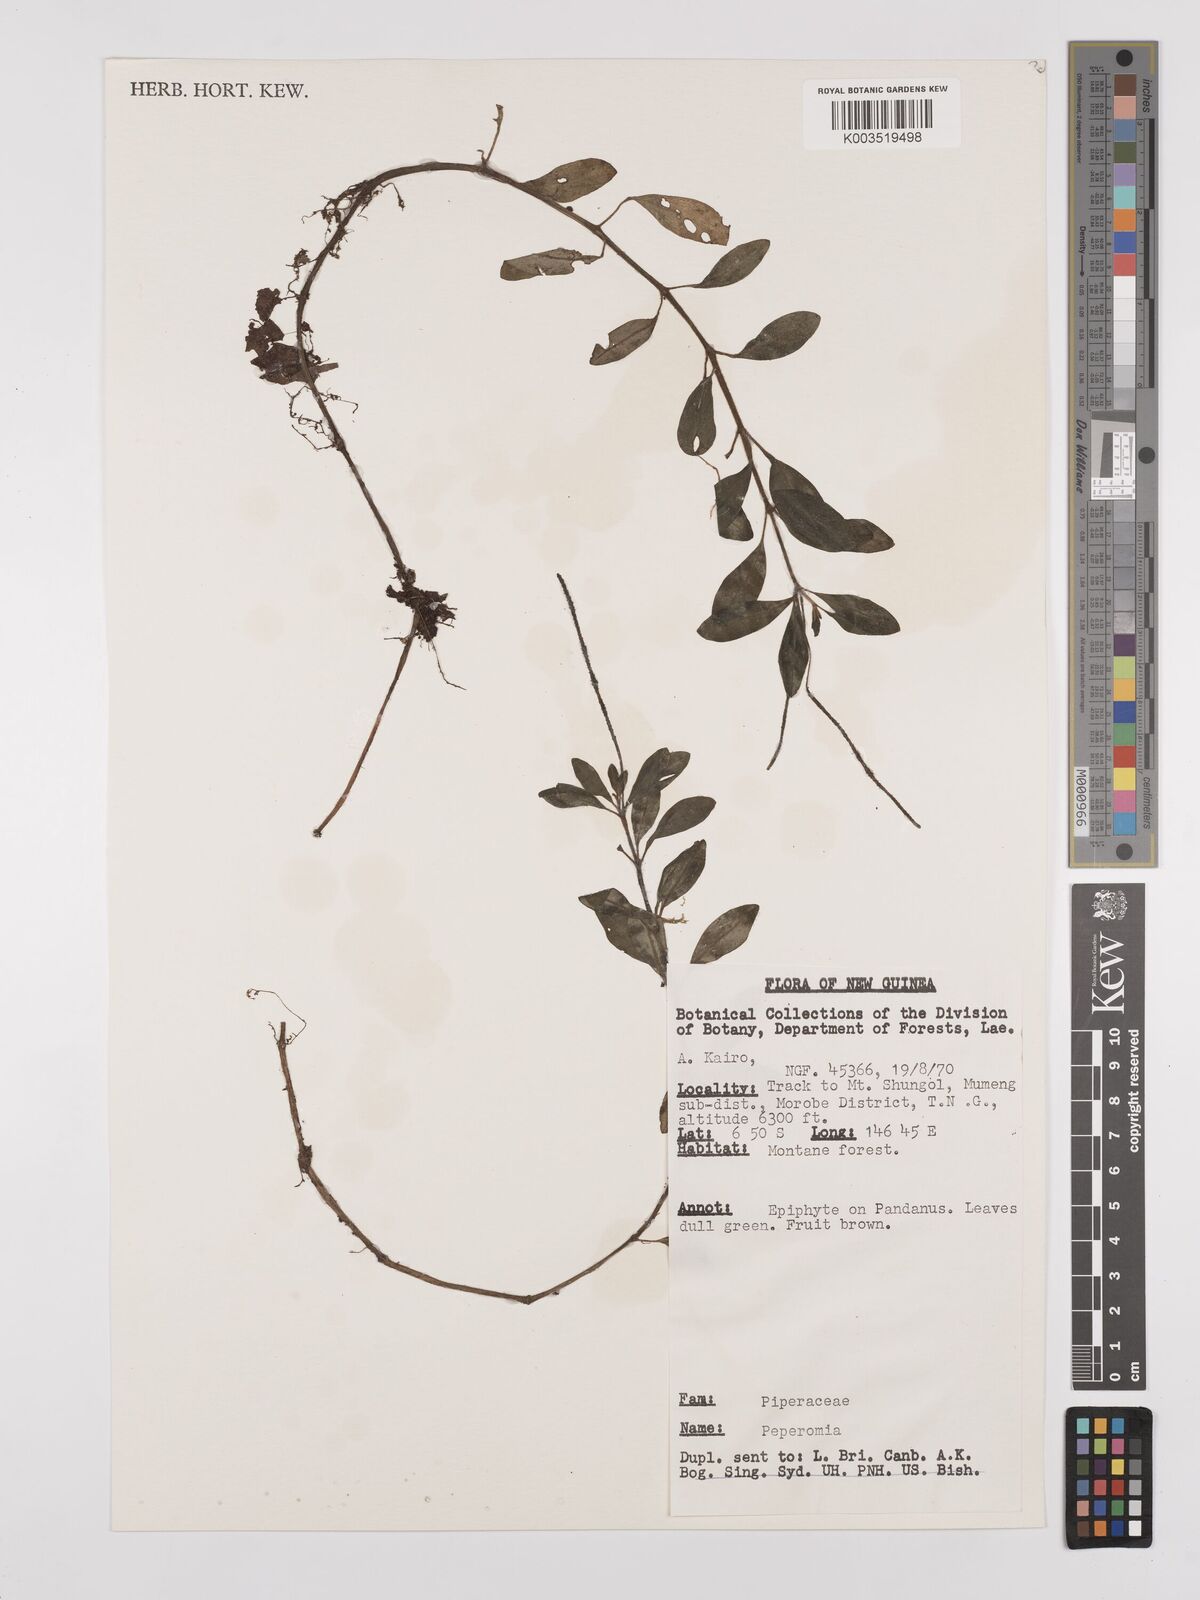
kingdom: Plantae
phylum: Tracheophyta
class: Magnoliopsida
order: Piperales
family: Piperaceae
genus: Peperomia
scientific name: Peperomia
